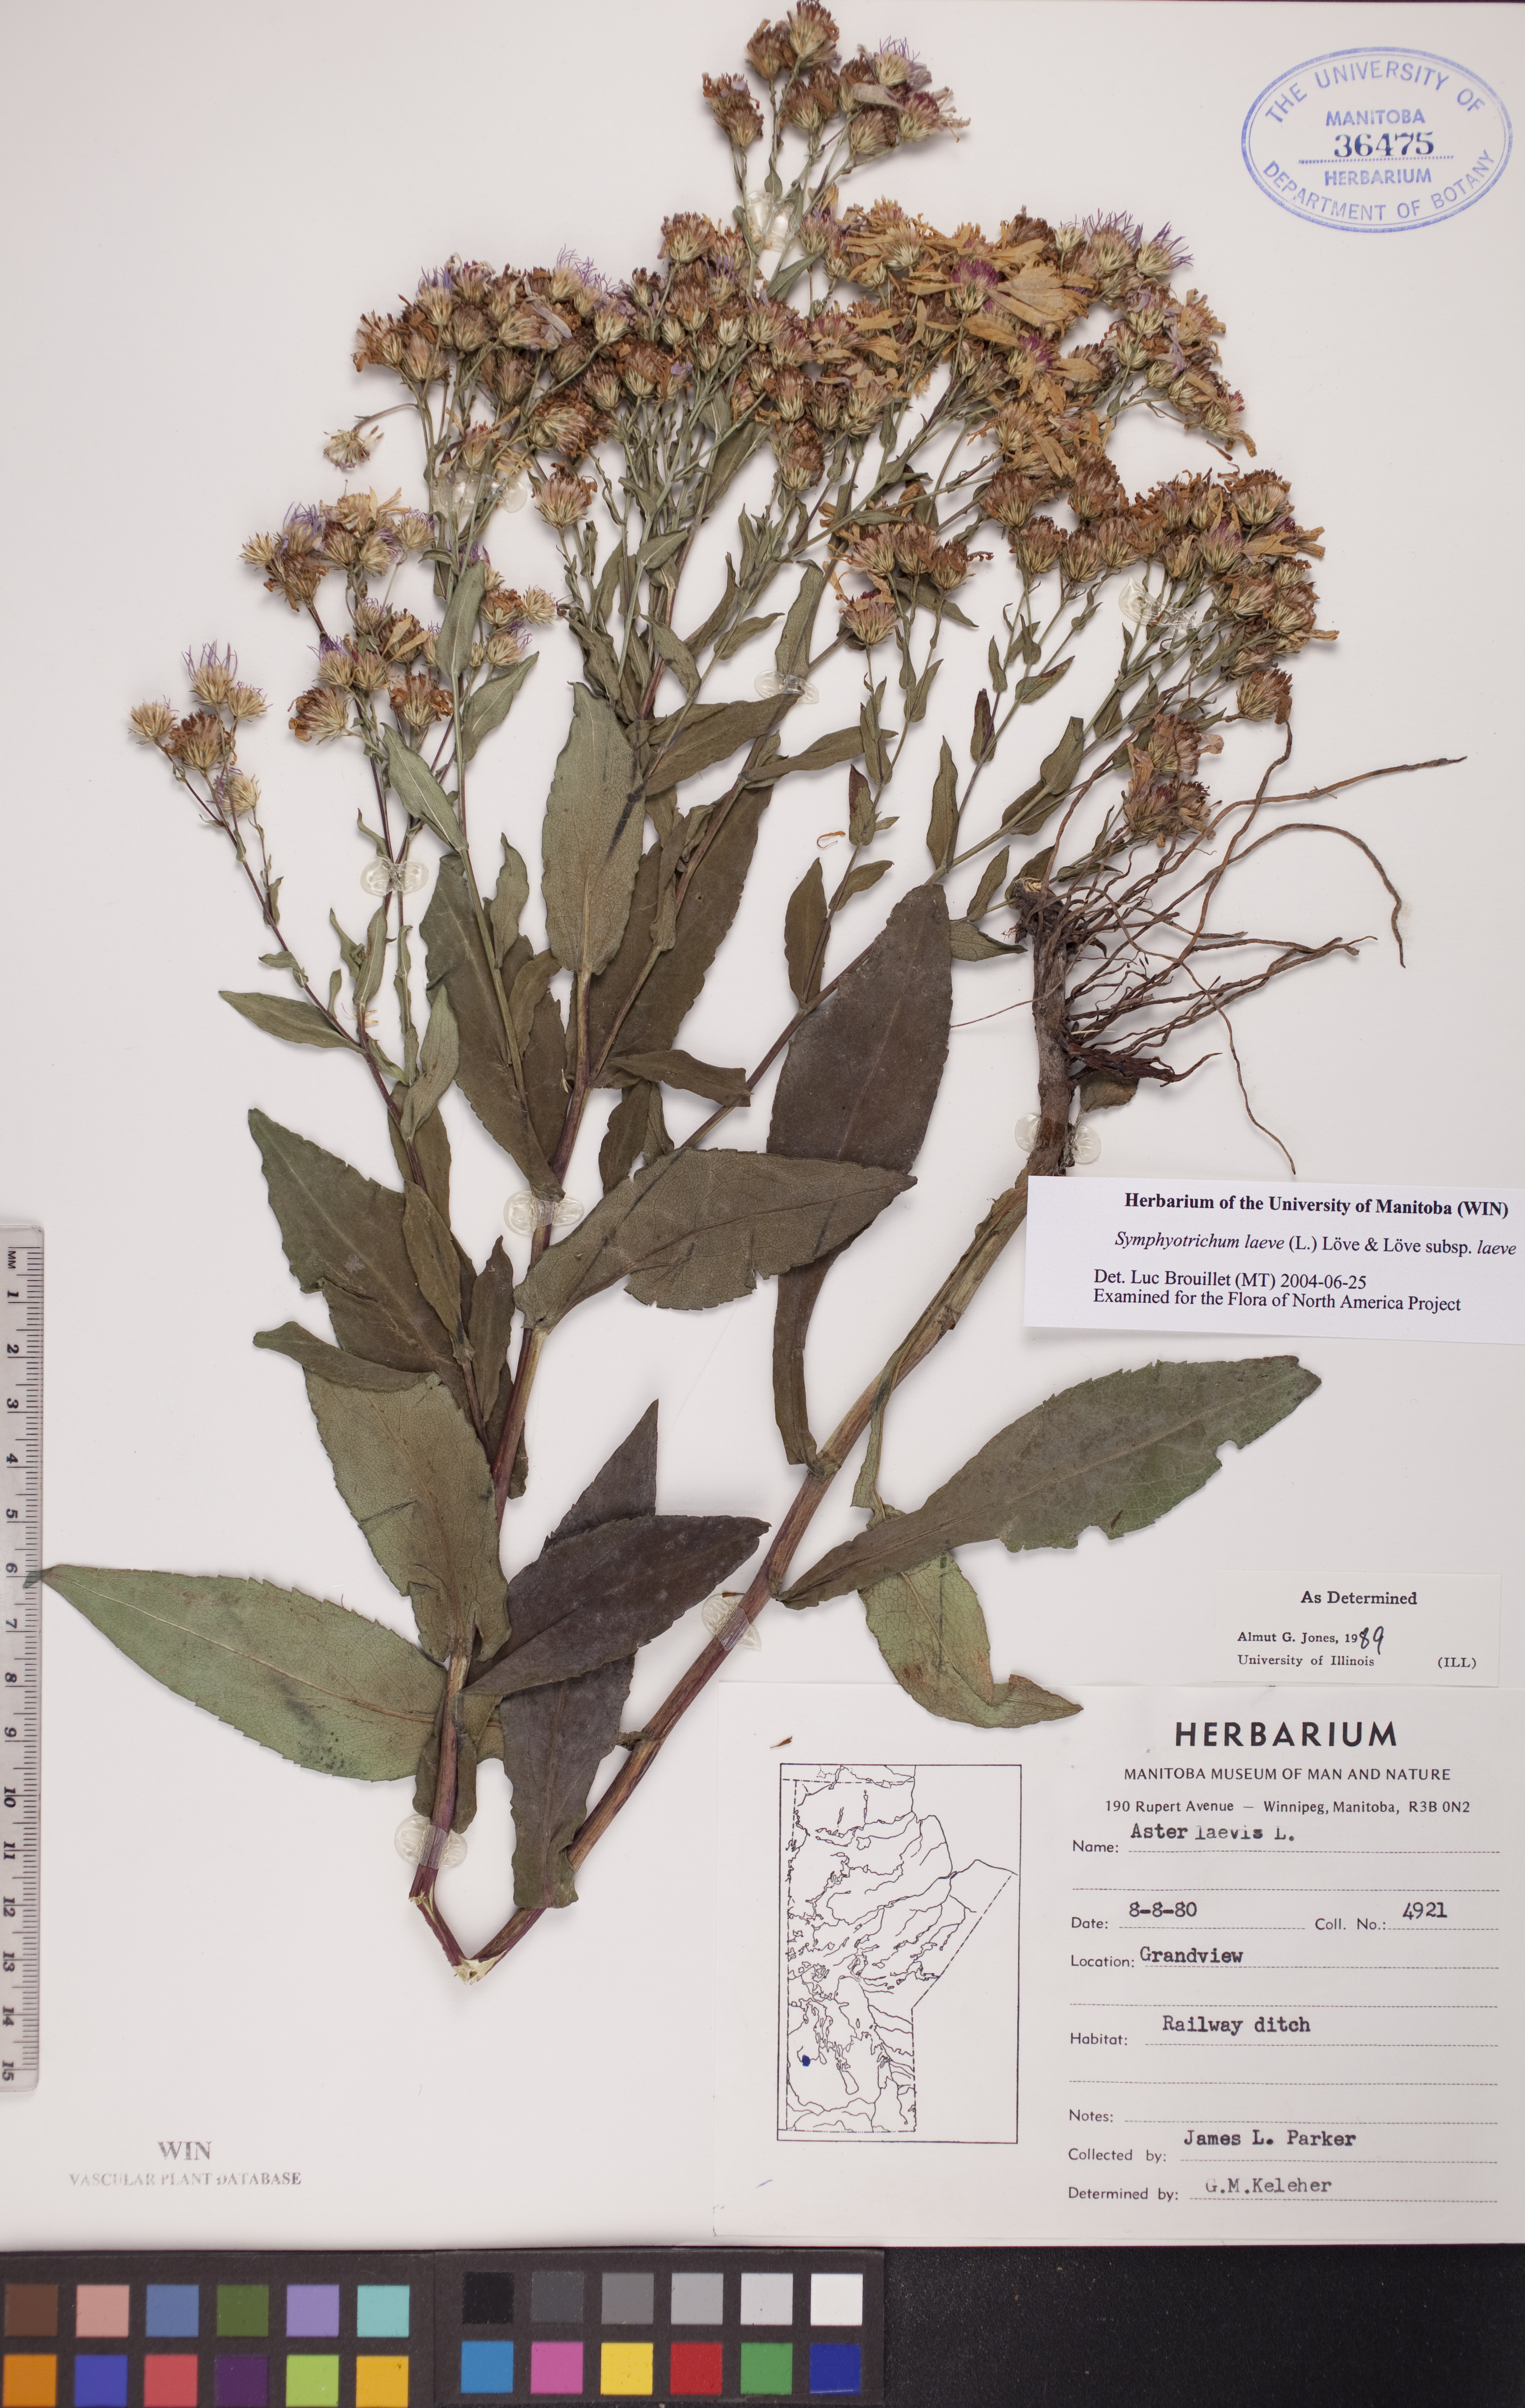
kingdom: Plantae
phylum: Tracheophyta
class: Magnoliopsida
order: Asterales
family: Asteraceae
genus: Symphyotrichum
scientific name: Symphyotrichum laeve
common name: Glaucous aster
